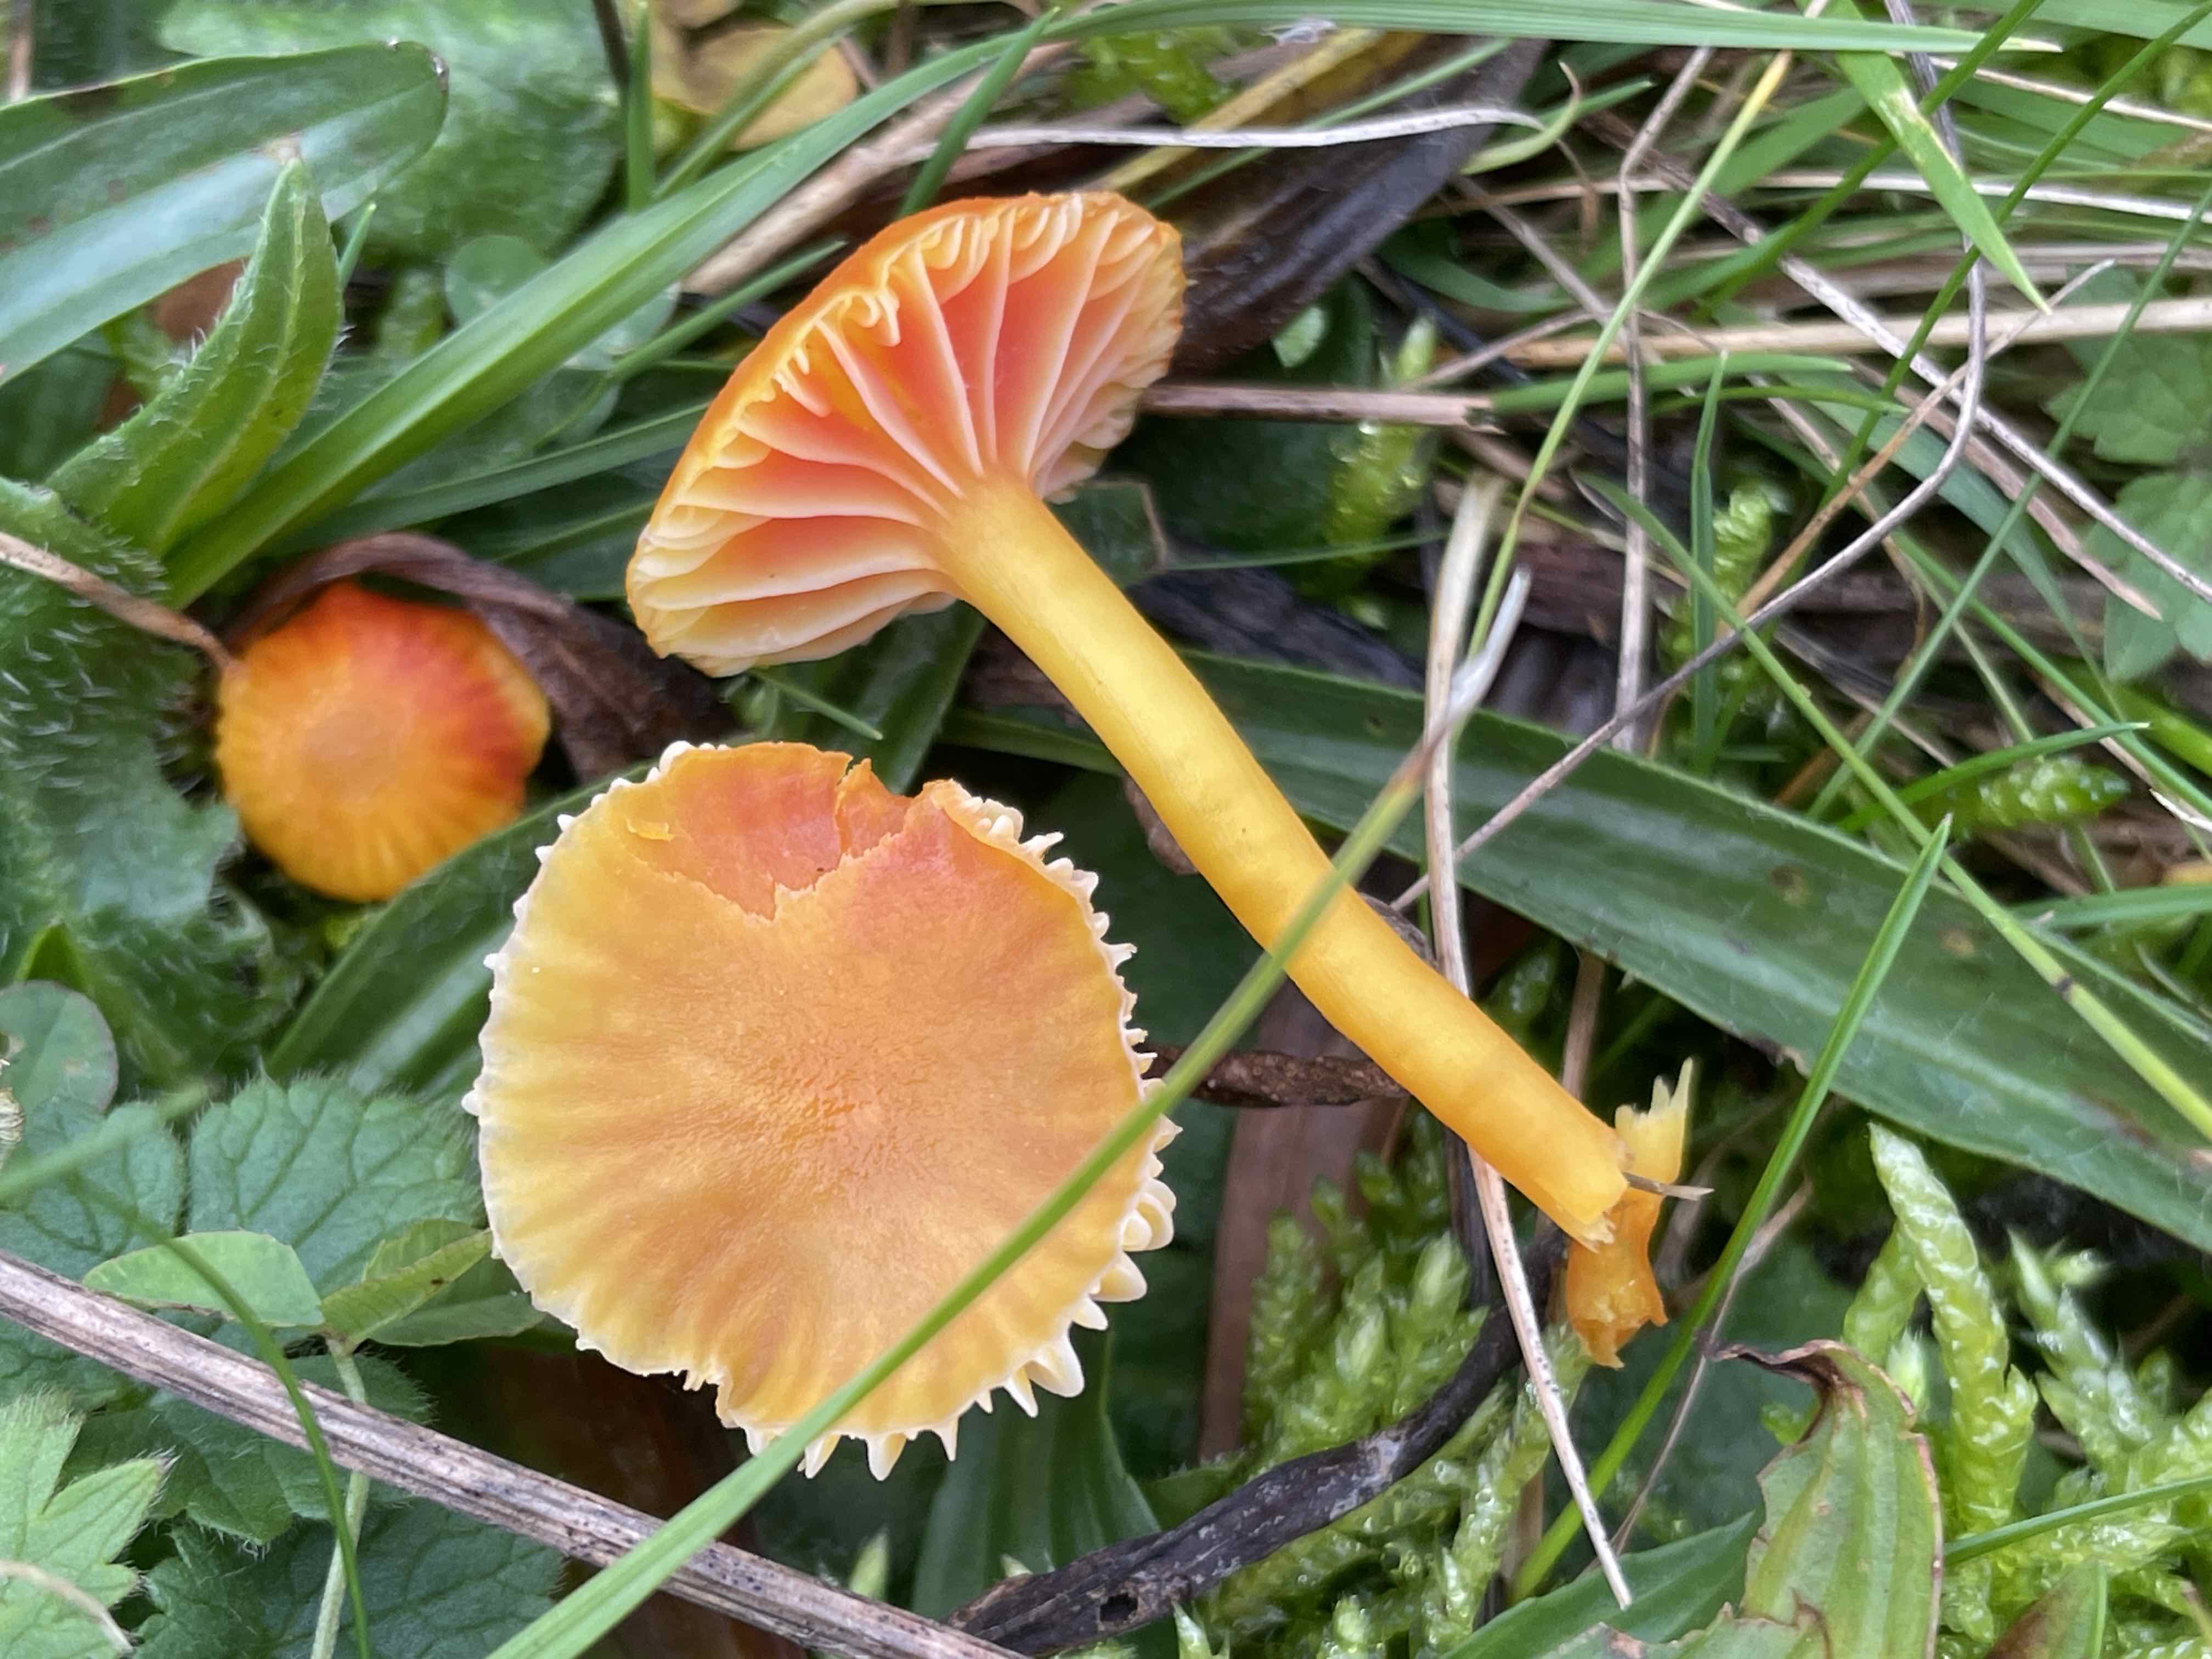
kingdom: Fungi
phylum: Basidiomycota
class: Agaricomycetes
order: Agaricales
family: Hygrophoraceae
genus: Hygrocybe
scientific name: Hygrocybe insipida
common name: liden vokshat
